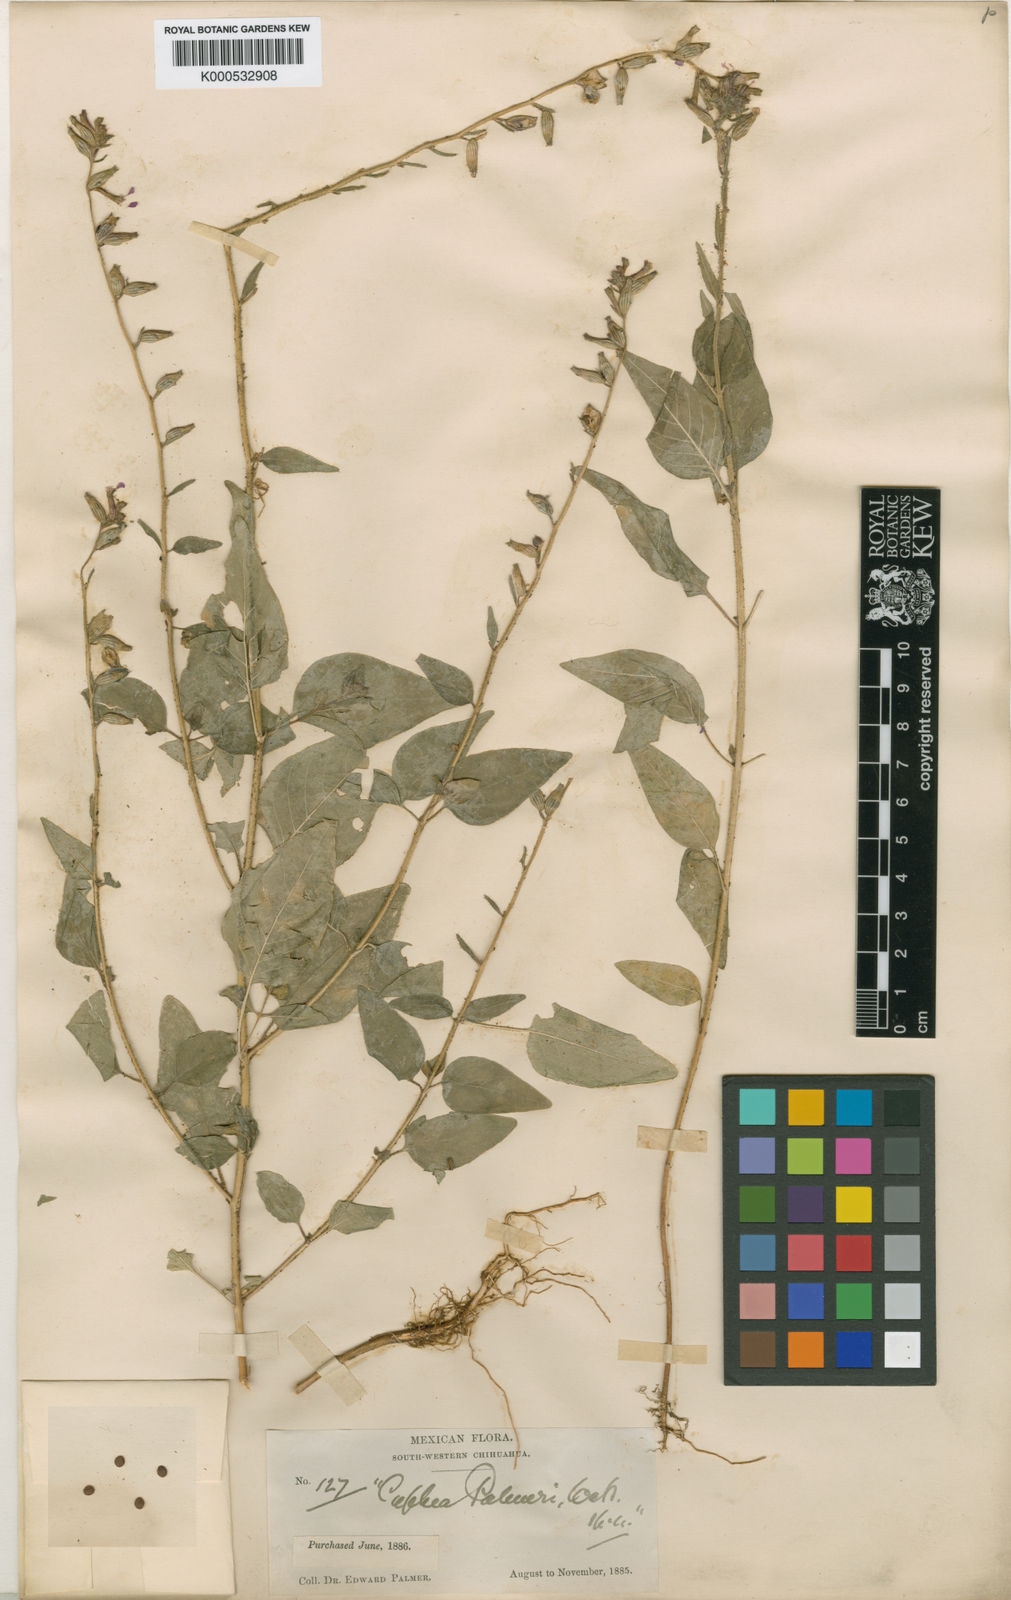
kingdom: Plantae
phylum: Tracheophyta
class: Magnoliopsida
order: Myrtales
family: Lythraceae
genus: Cuphea
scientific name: Cuphea leptopoda
